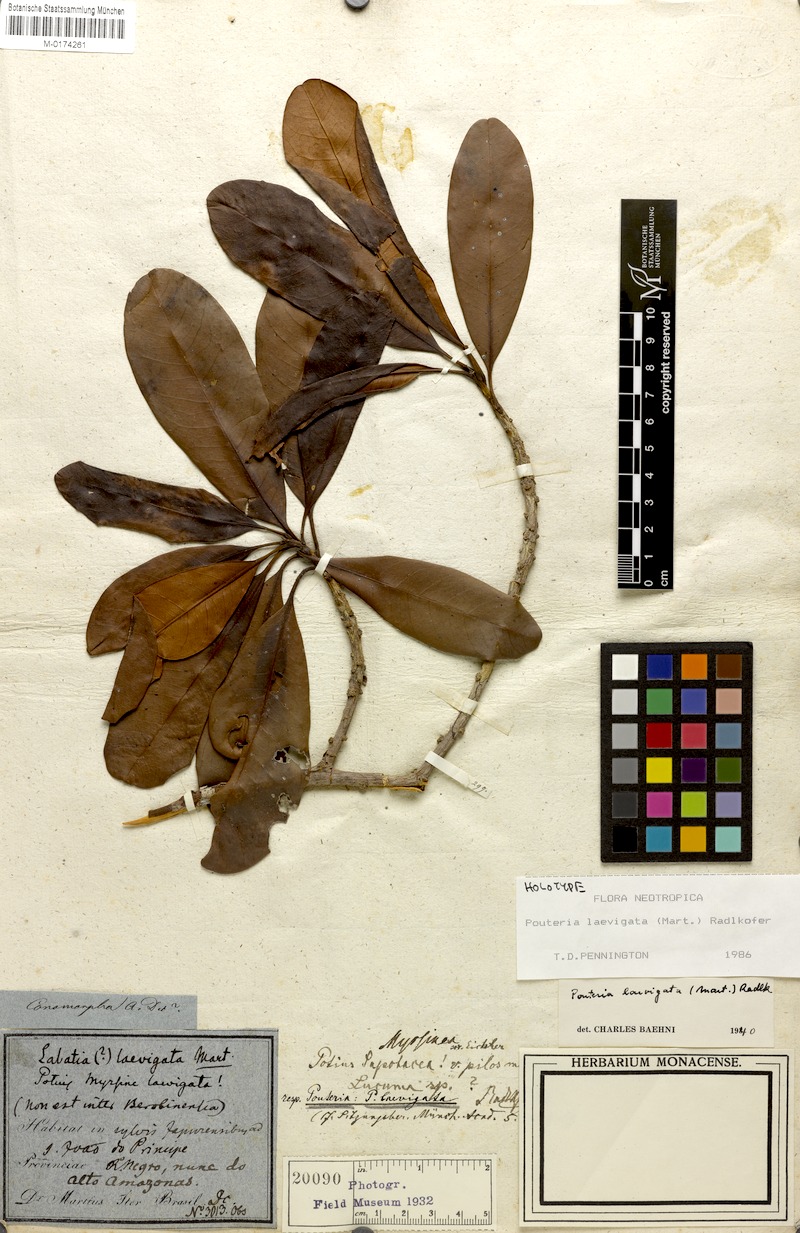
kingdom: Plantae
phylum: Tracheophyta
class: Magnoliopsida
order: Ericales
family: Sapotaceae
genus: Pouteria
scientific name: Pouteria laevigata
